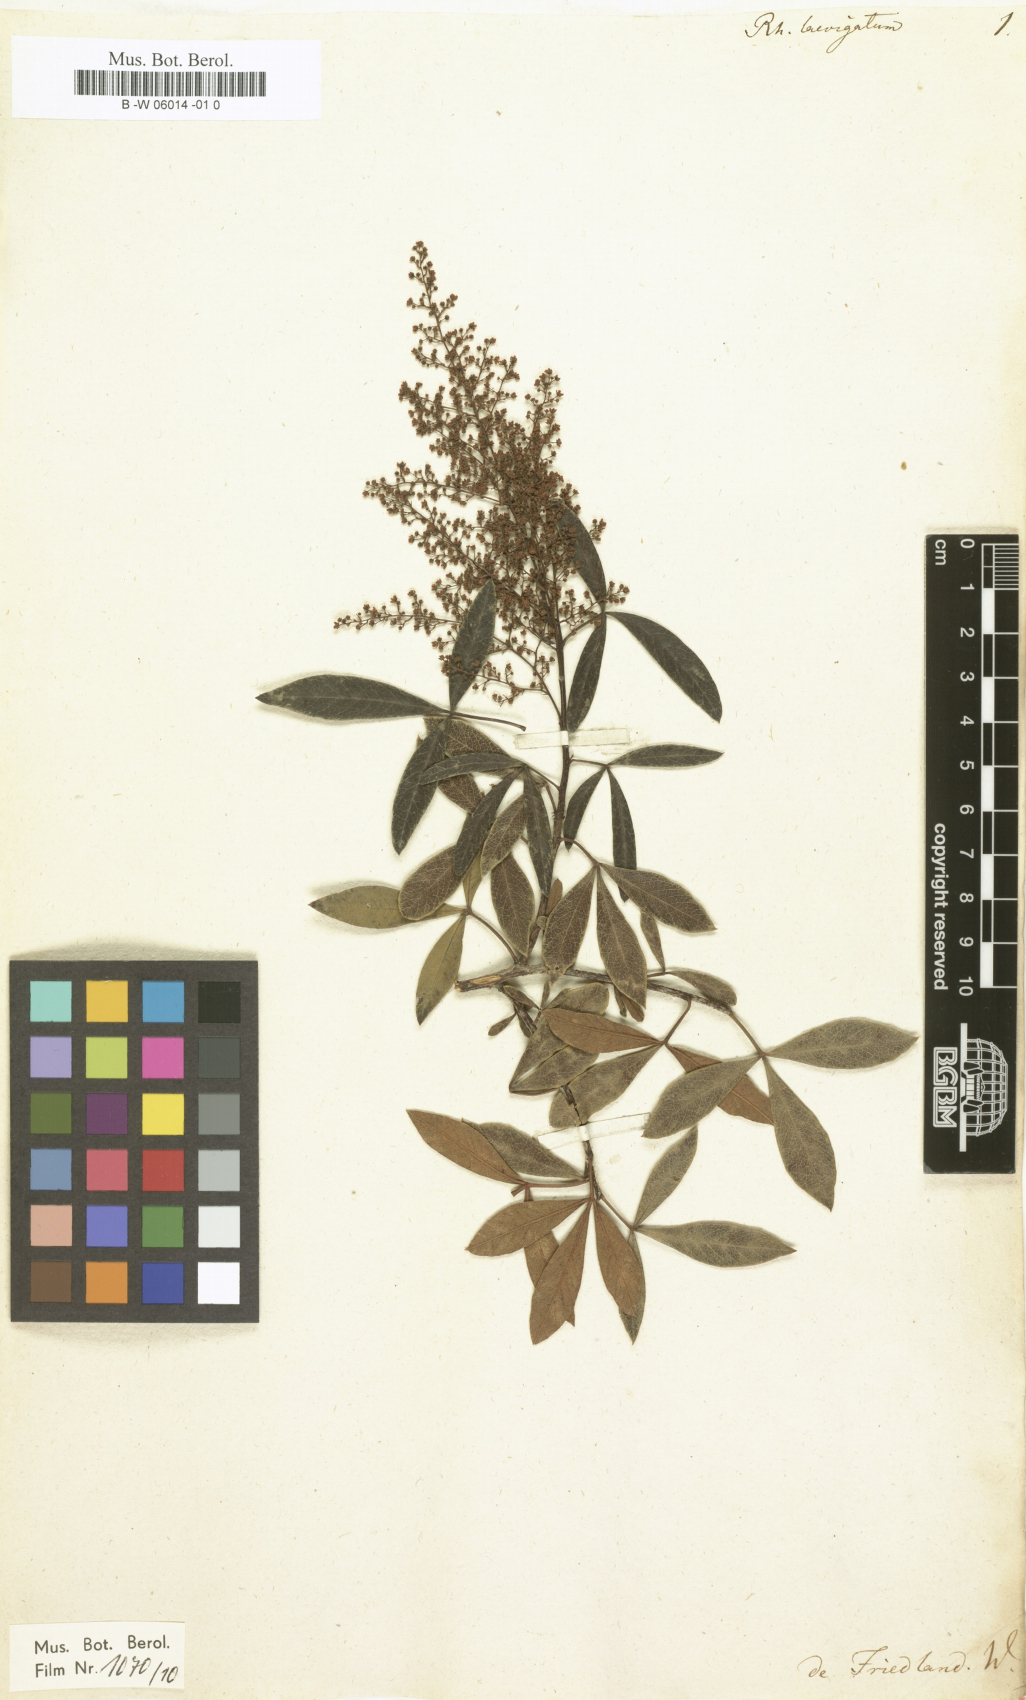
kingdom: Plantae
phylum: Tracheophyta
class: Magnoliopsida
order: Sapindales
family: Anacardiaceae
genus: Searsia
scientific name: Searsia
